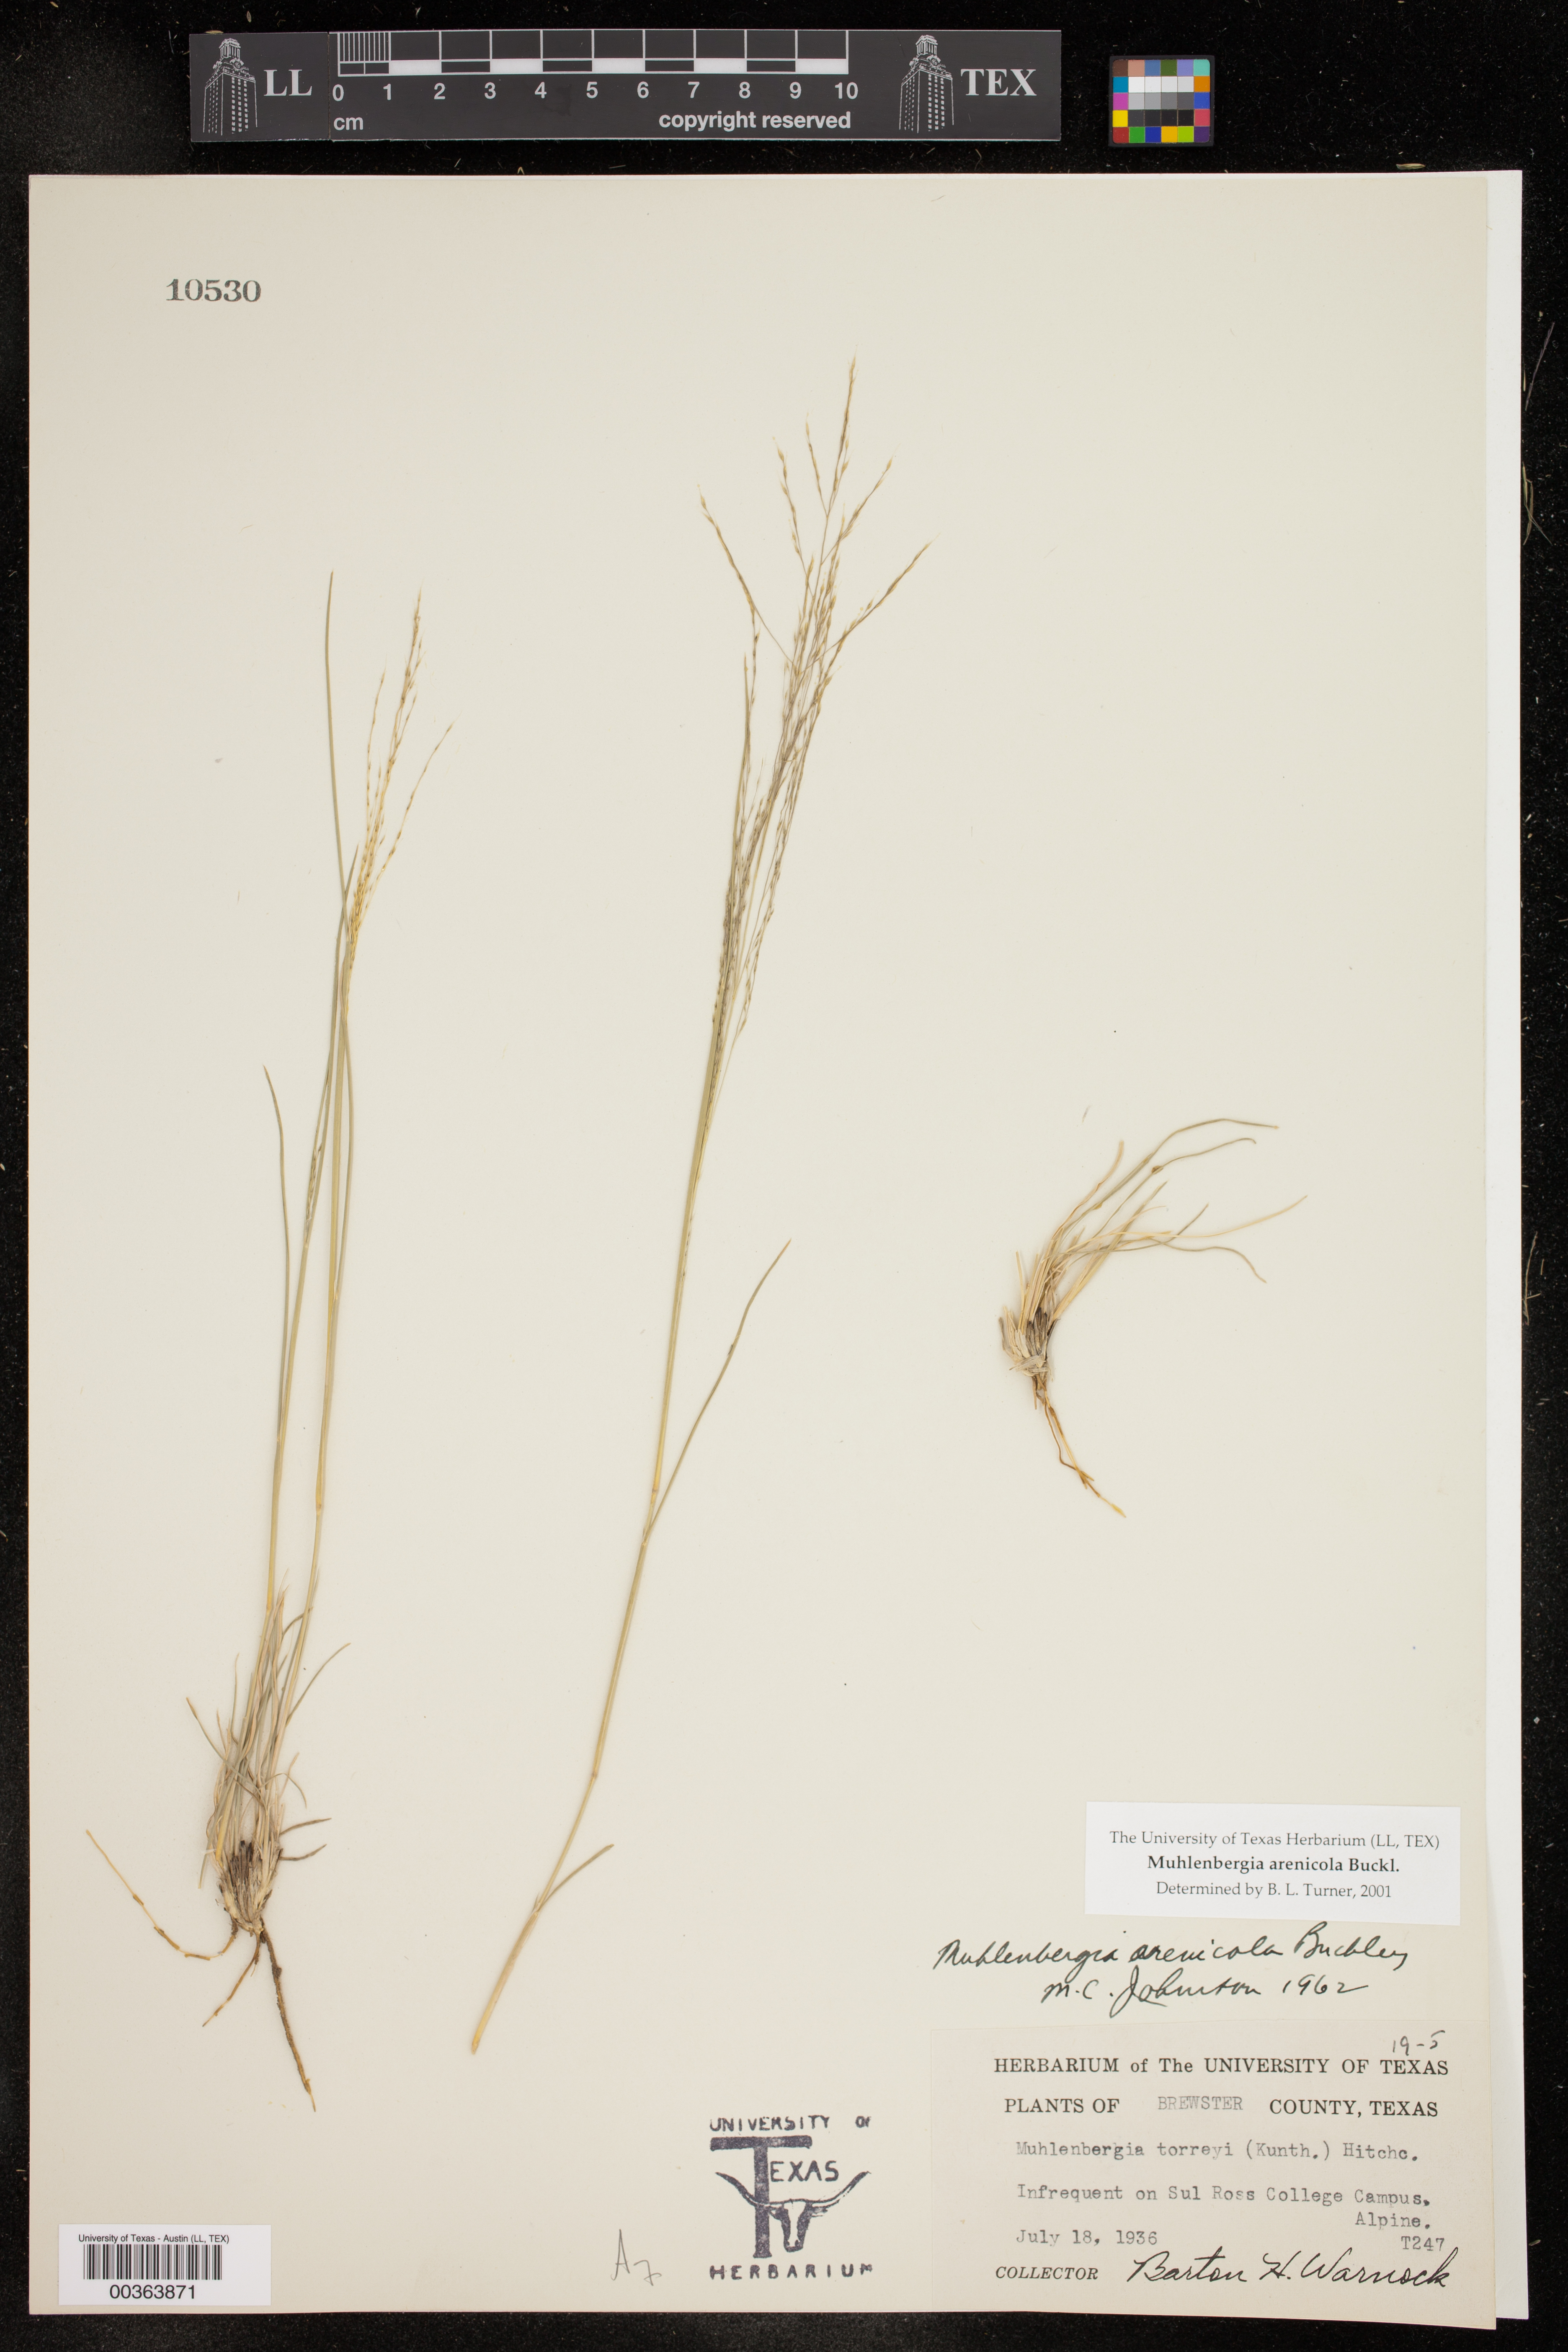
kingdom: Plantae
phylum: Tracheophyta
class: Liliopsida
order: Poales
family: Poaceae
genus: Muhlenbergia
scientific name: Muhlenbergia arenicola
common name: Sand muhly
